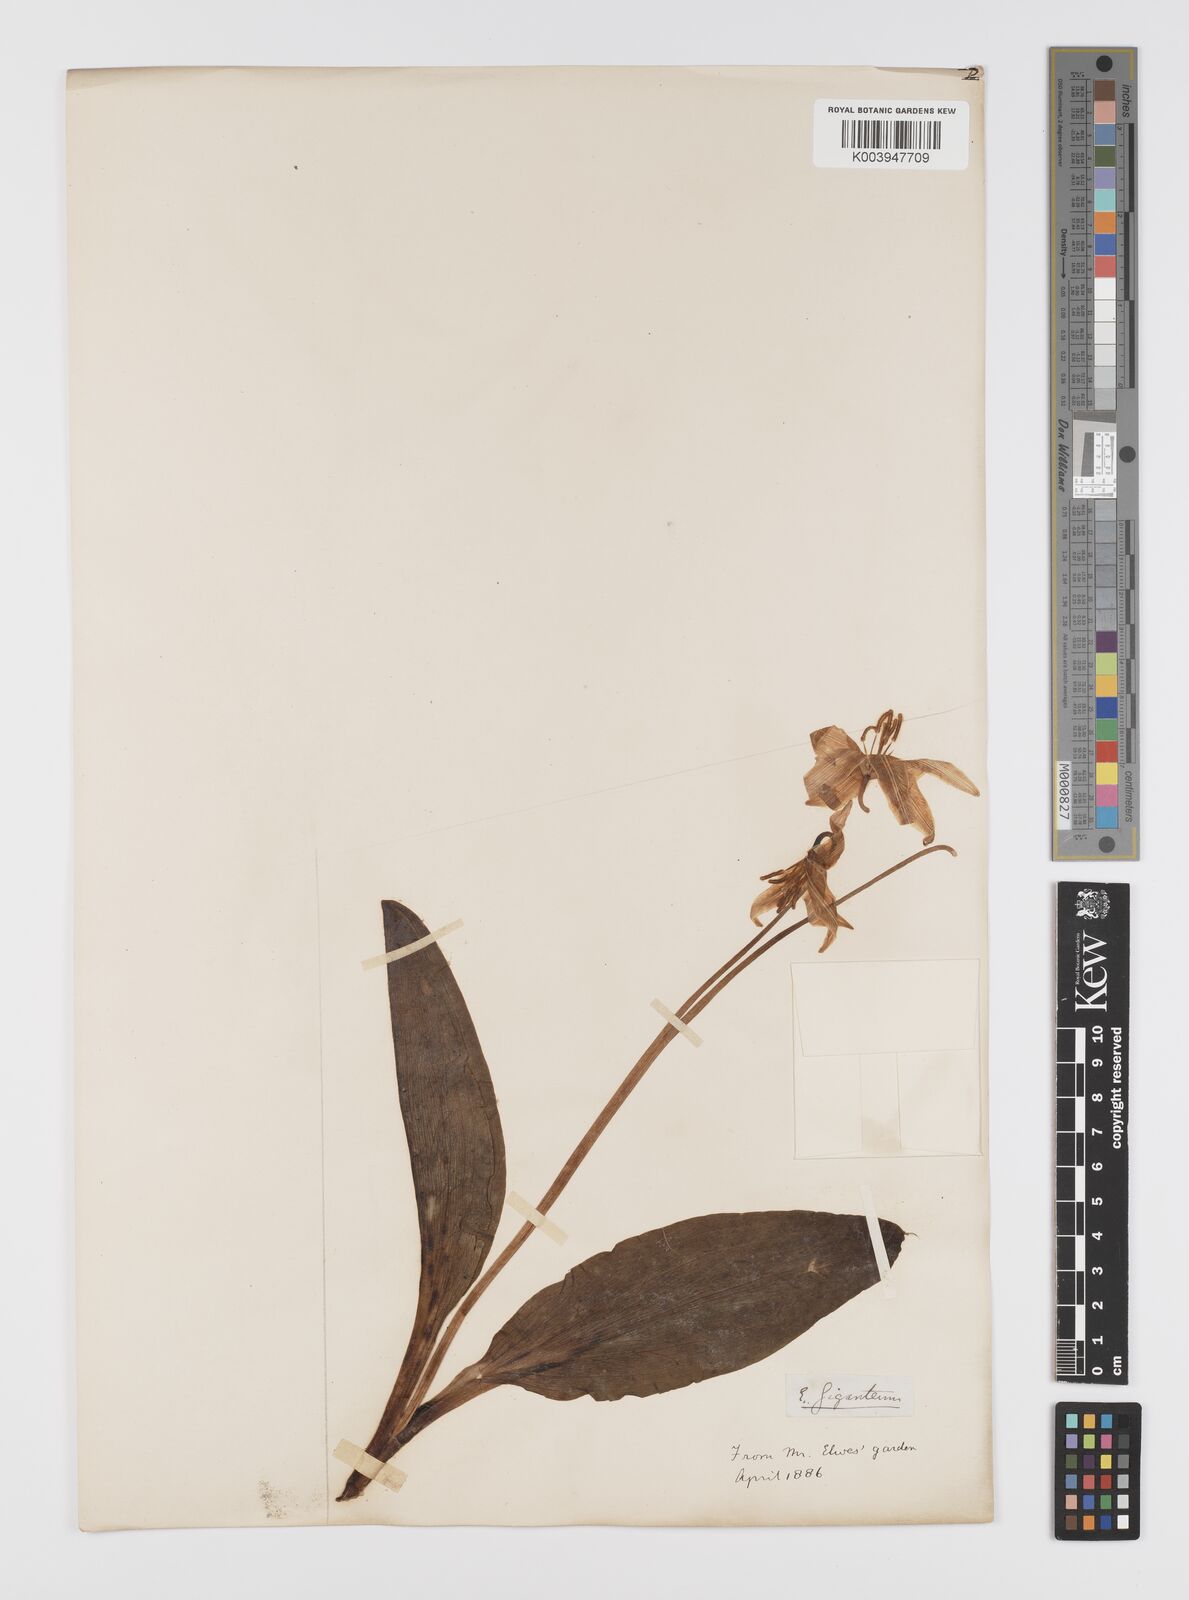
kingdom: Plantae
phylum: Tracheophyta
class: Liliopsida
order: Liliales
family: Liliaceae
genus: Erythronium
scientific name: Erythronium oregonum
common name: Giant adder's-tongue
